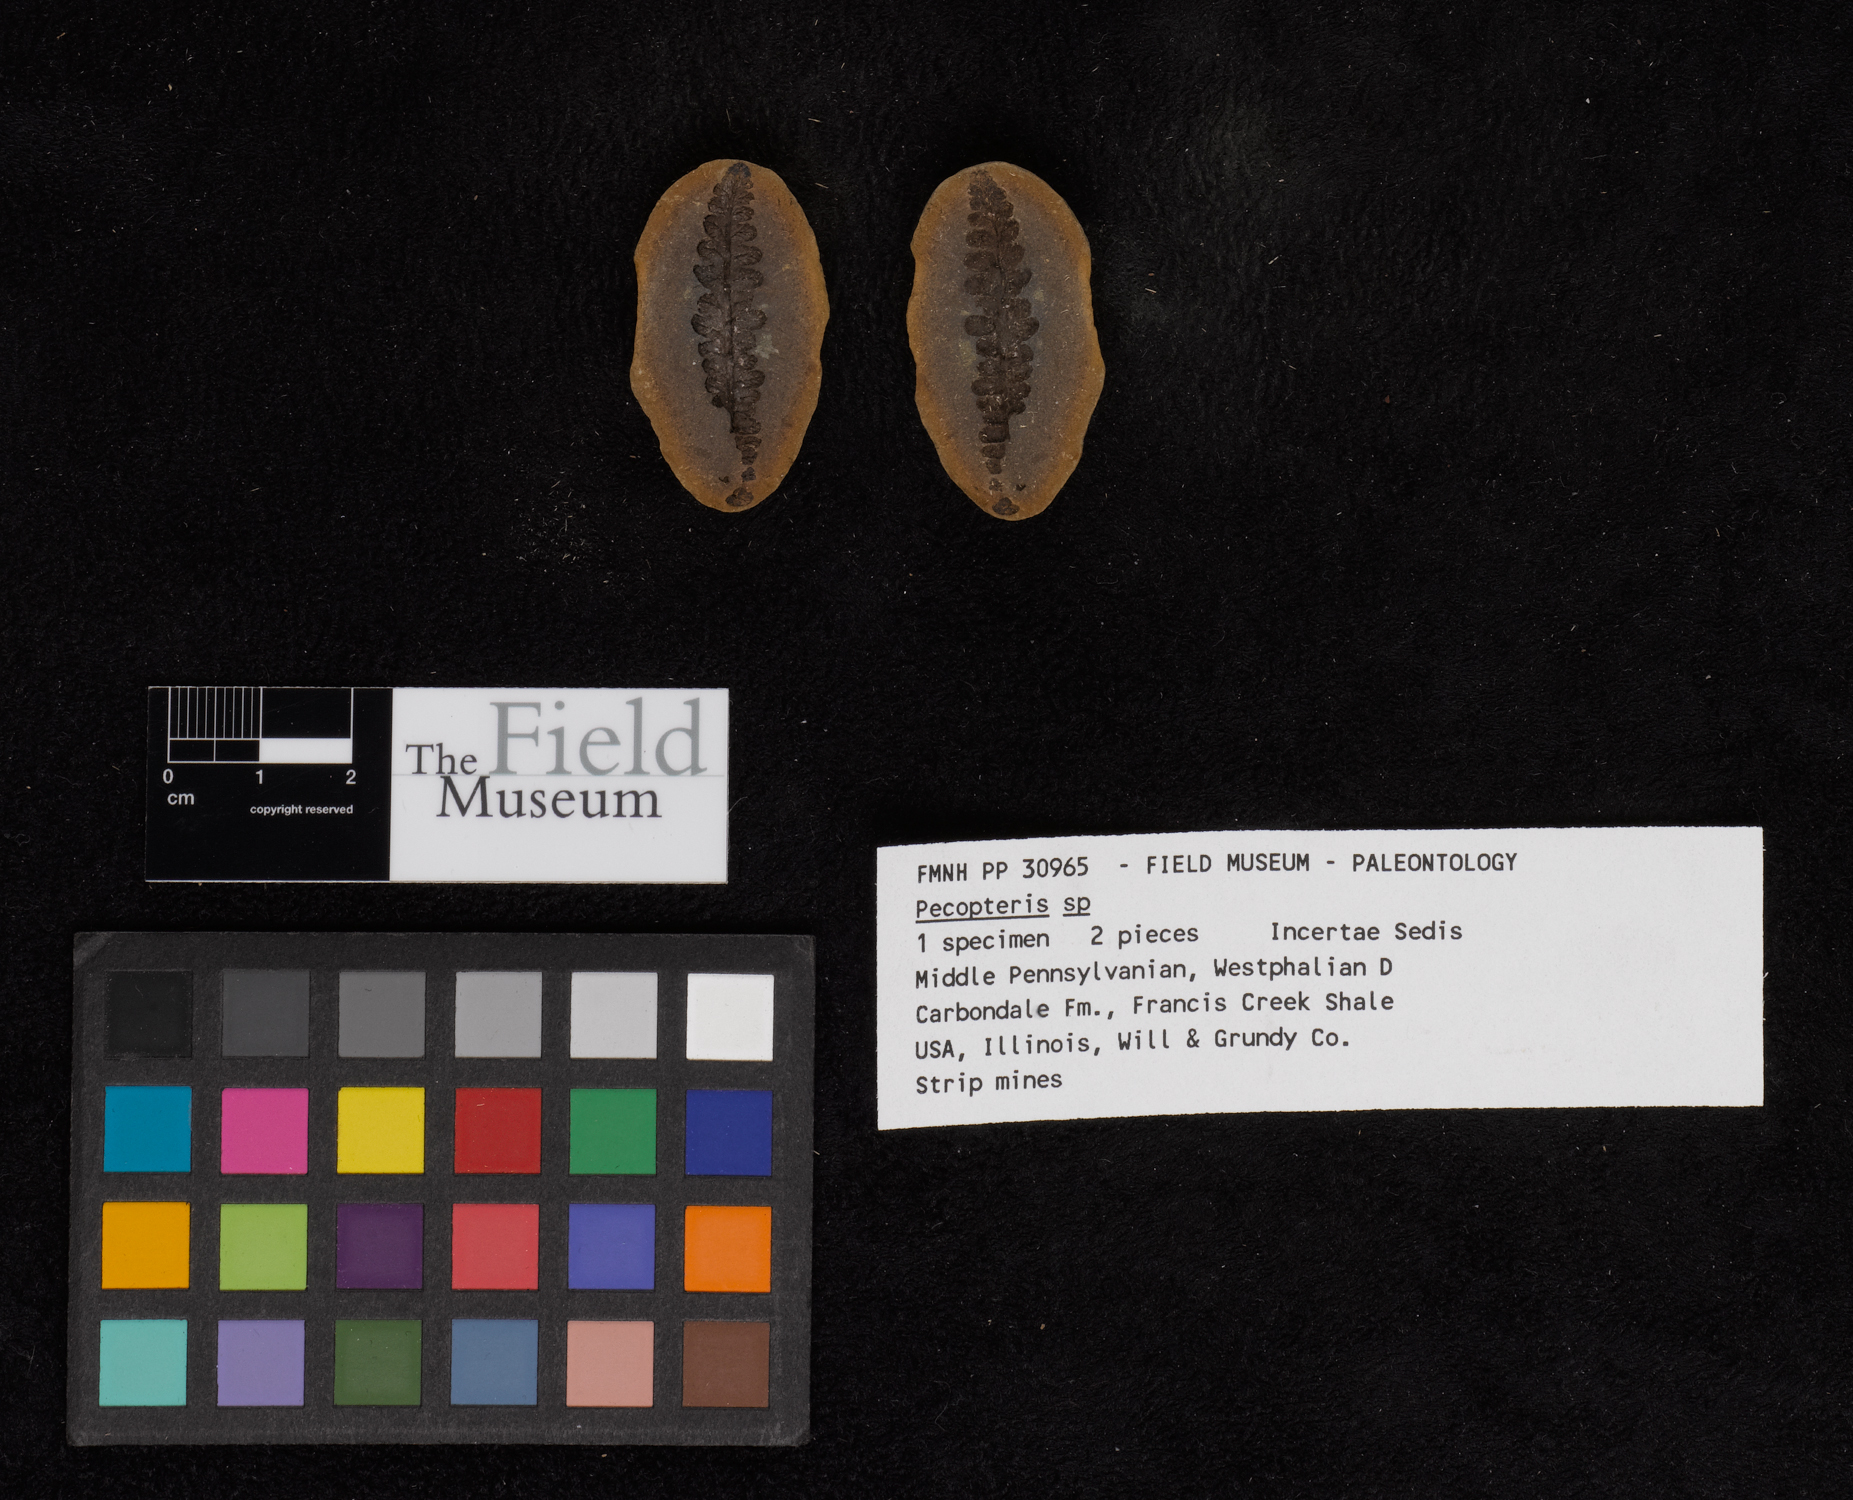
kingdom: Plantae
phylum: Tracheophyta
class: Polypodiopsida
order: Marattiales
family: Asterothecaceae
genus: Pecopteris
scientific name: Pecopteris
